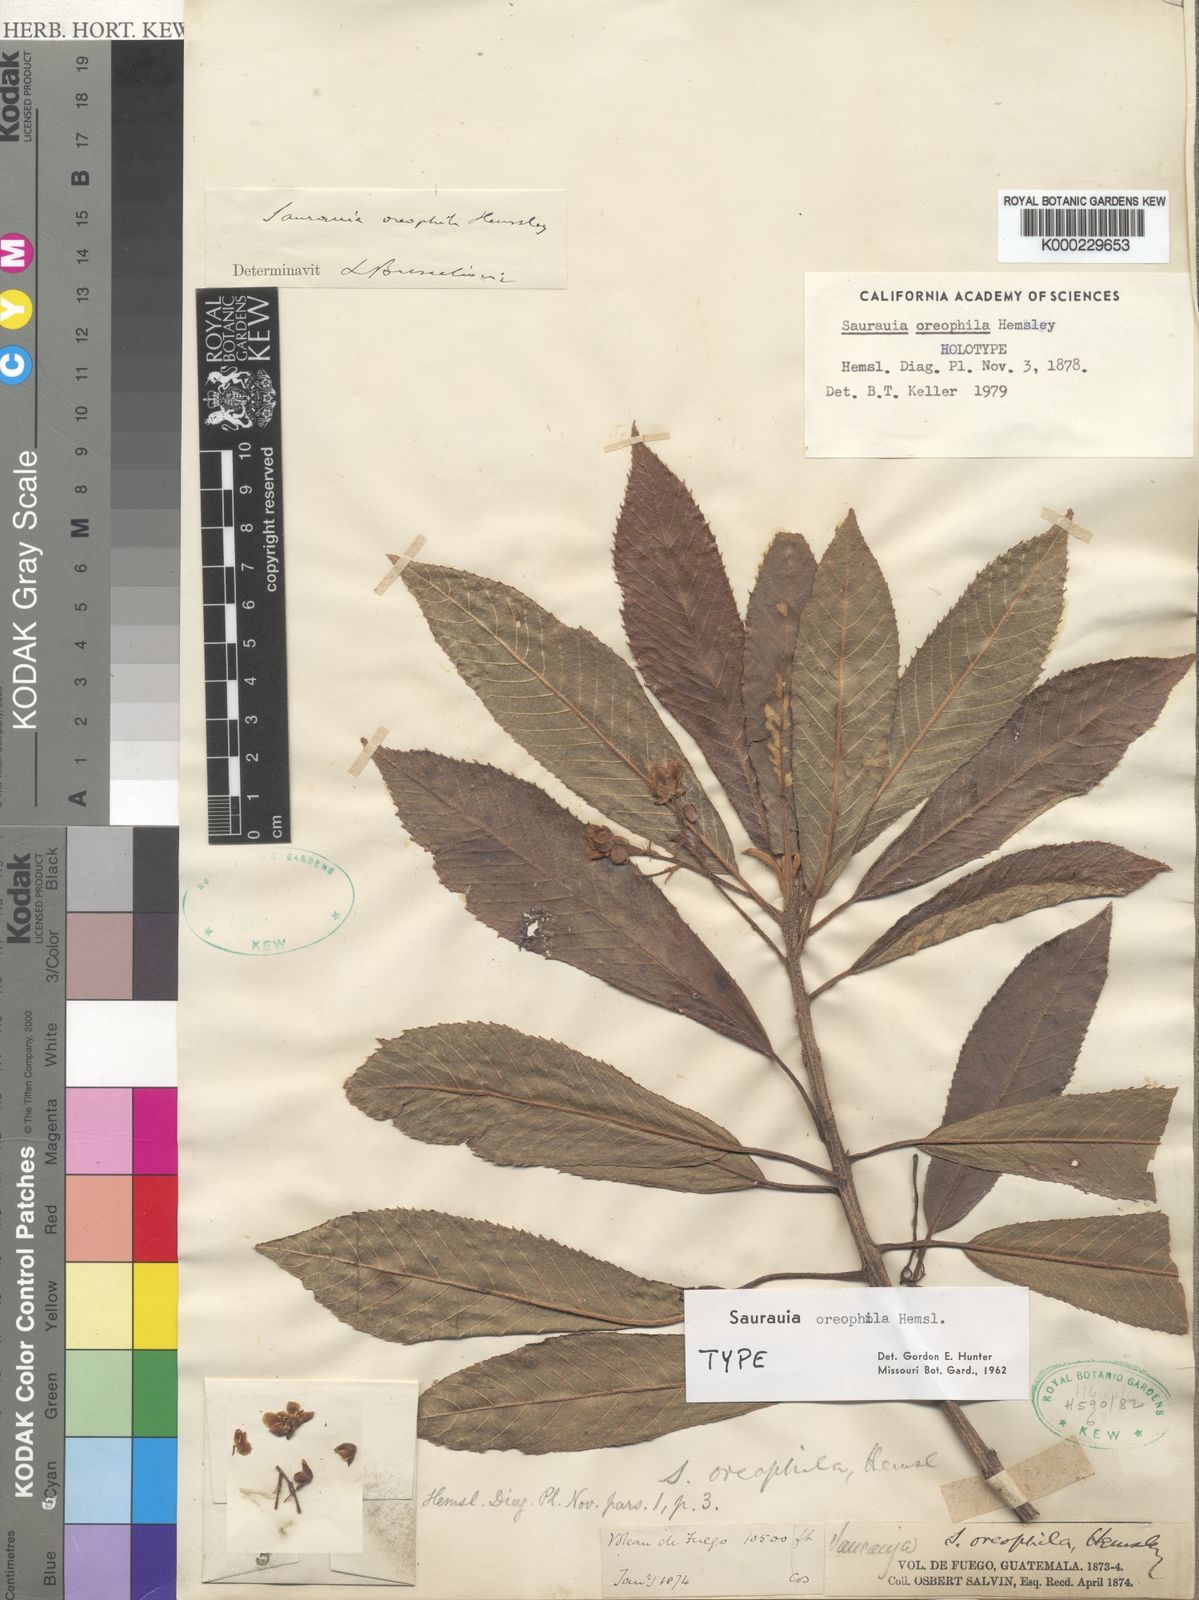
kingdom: Plantae
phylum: Tracheophyta
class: Magnoliopsida
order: Ericales
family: Actinidiaceae
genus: Saurauia
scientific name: Saurauia oreophila
